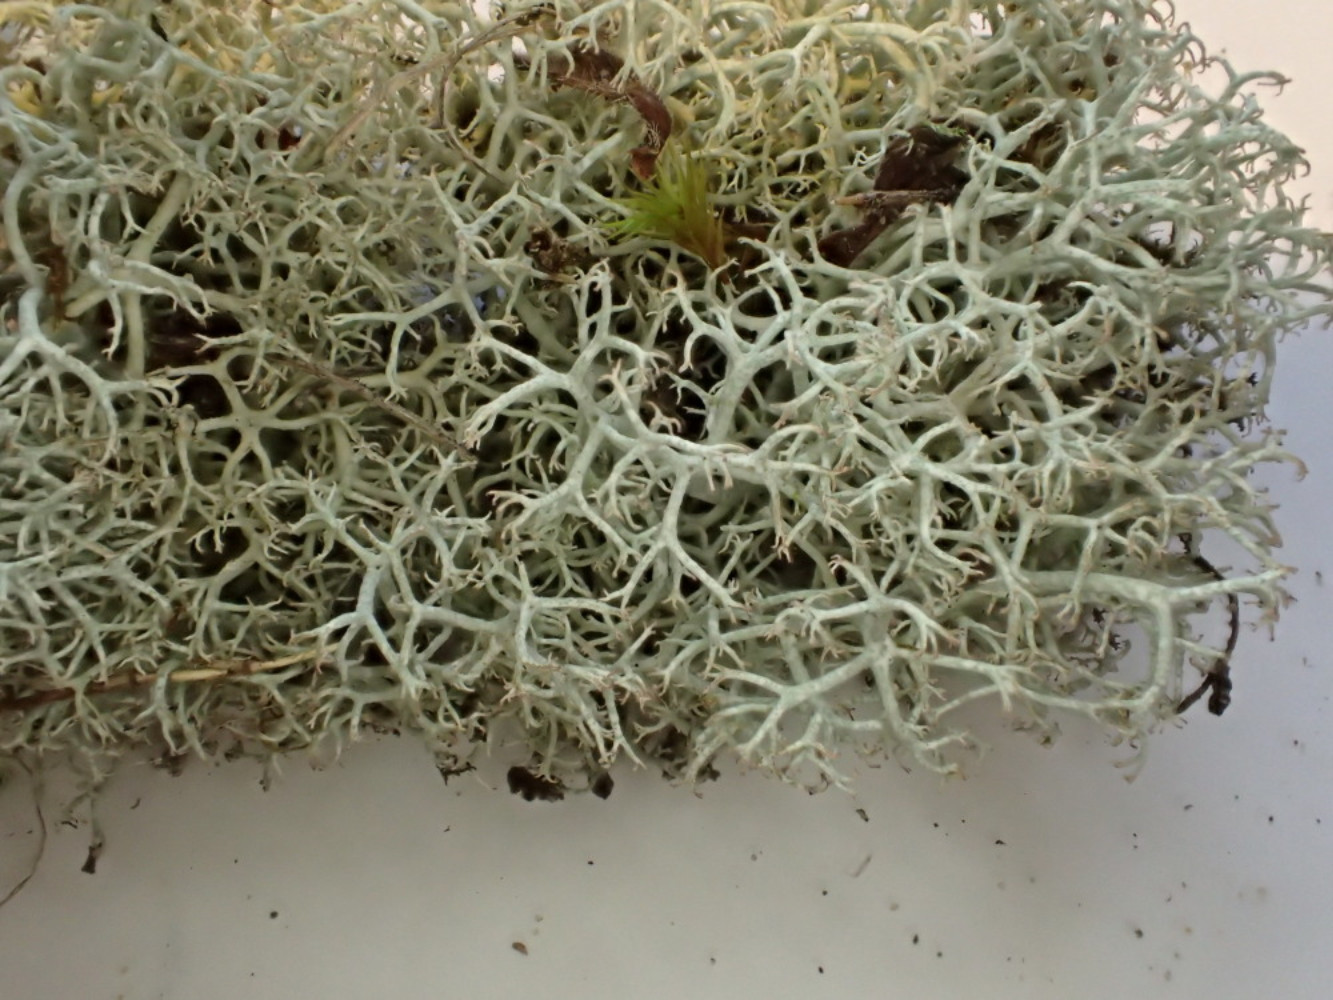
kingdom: Fungi
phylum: Ascomycota
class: Lecanoromycetes
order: Lecanorales
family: Cladoniaceae
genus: Cladonia
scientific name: Cladonia portentosa
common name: hede-rensdyrlav
